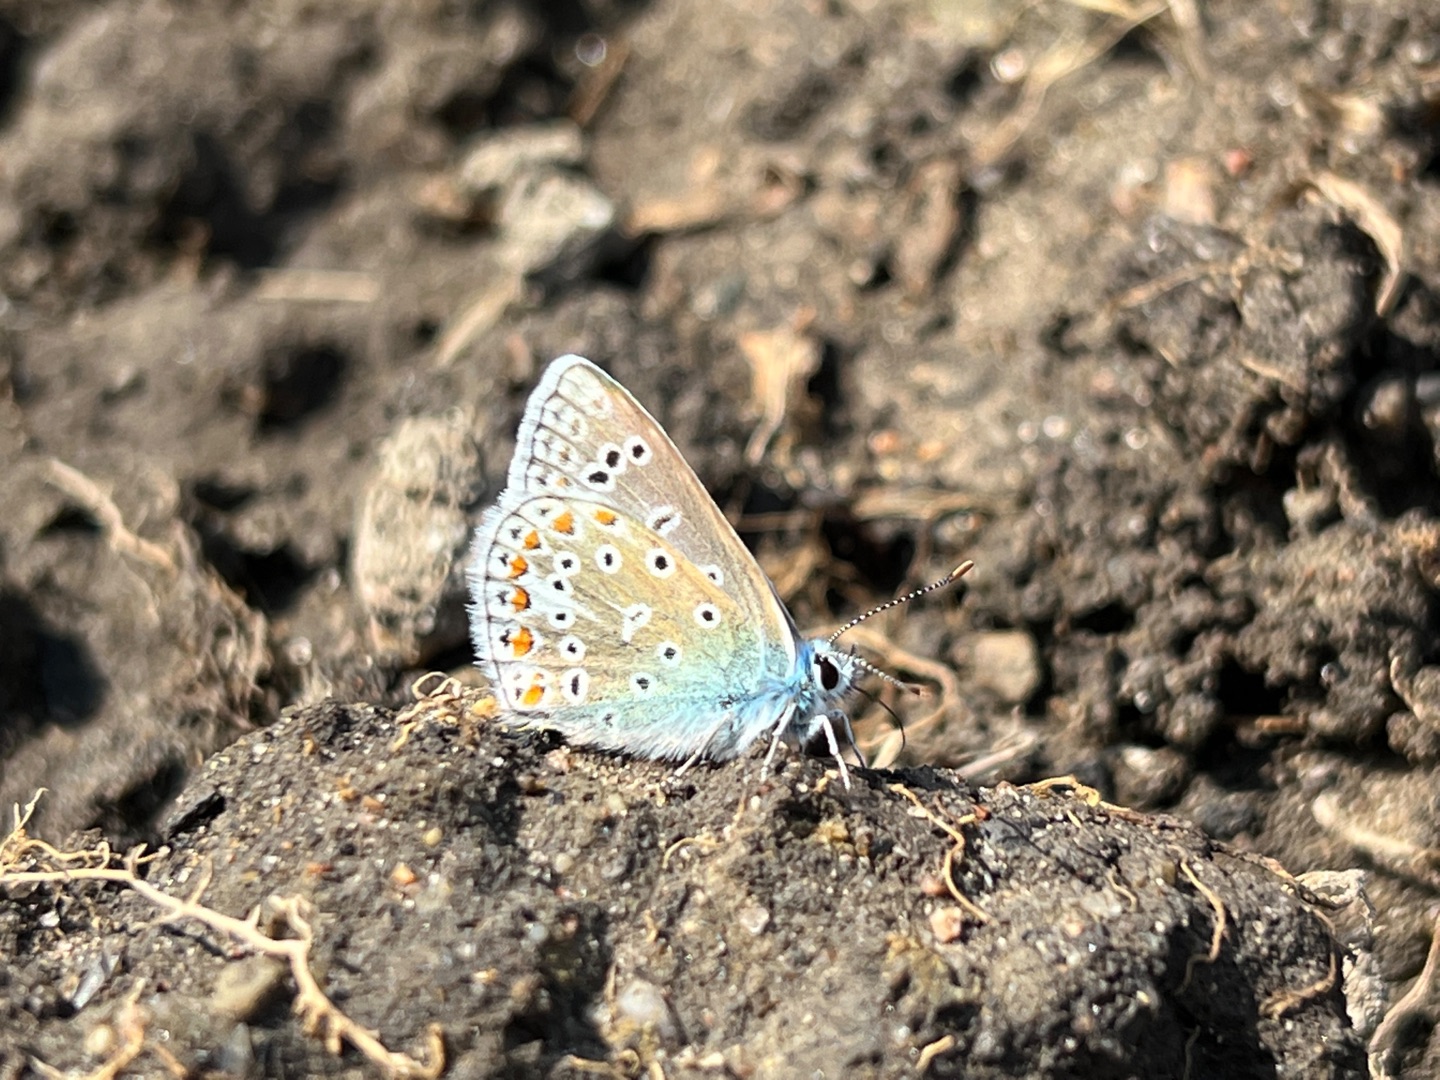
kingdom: Animalia
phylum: Arthropoda
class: Insecta
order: Lepidoptera
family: Lycaenidae
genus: Polyommatus
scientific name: Polyommatus icarus
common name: Almindelig blåfugl
